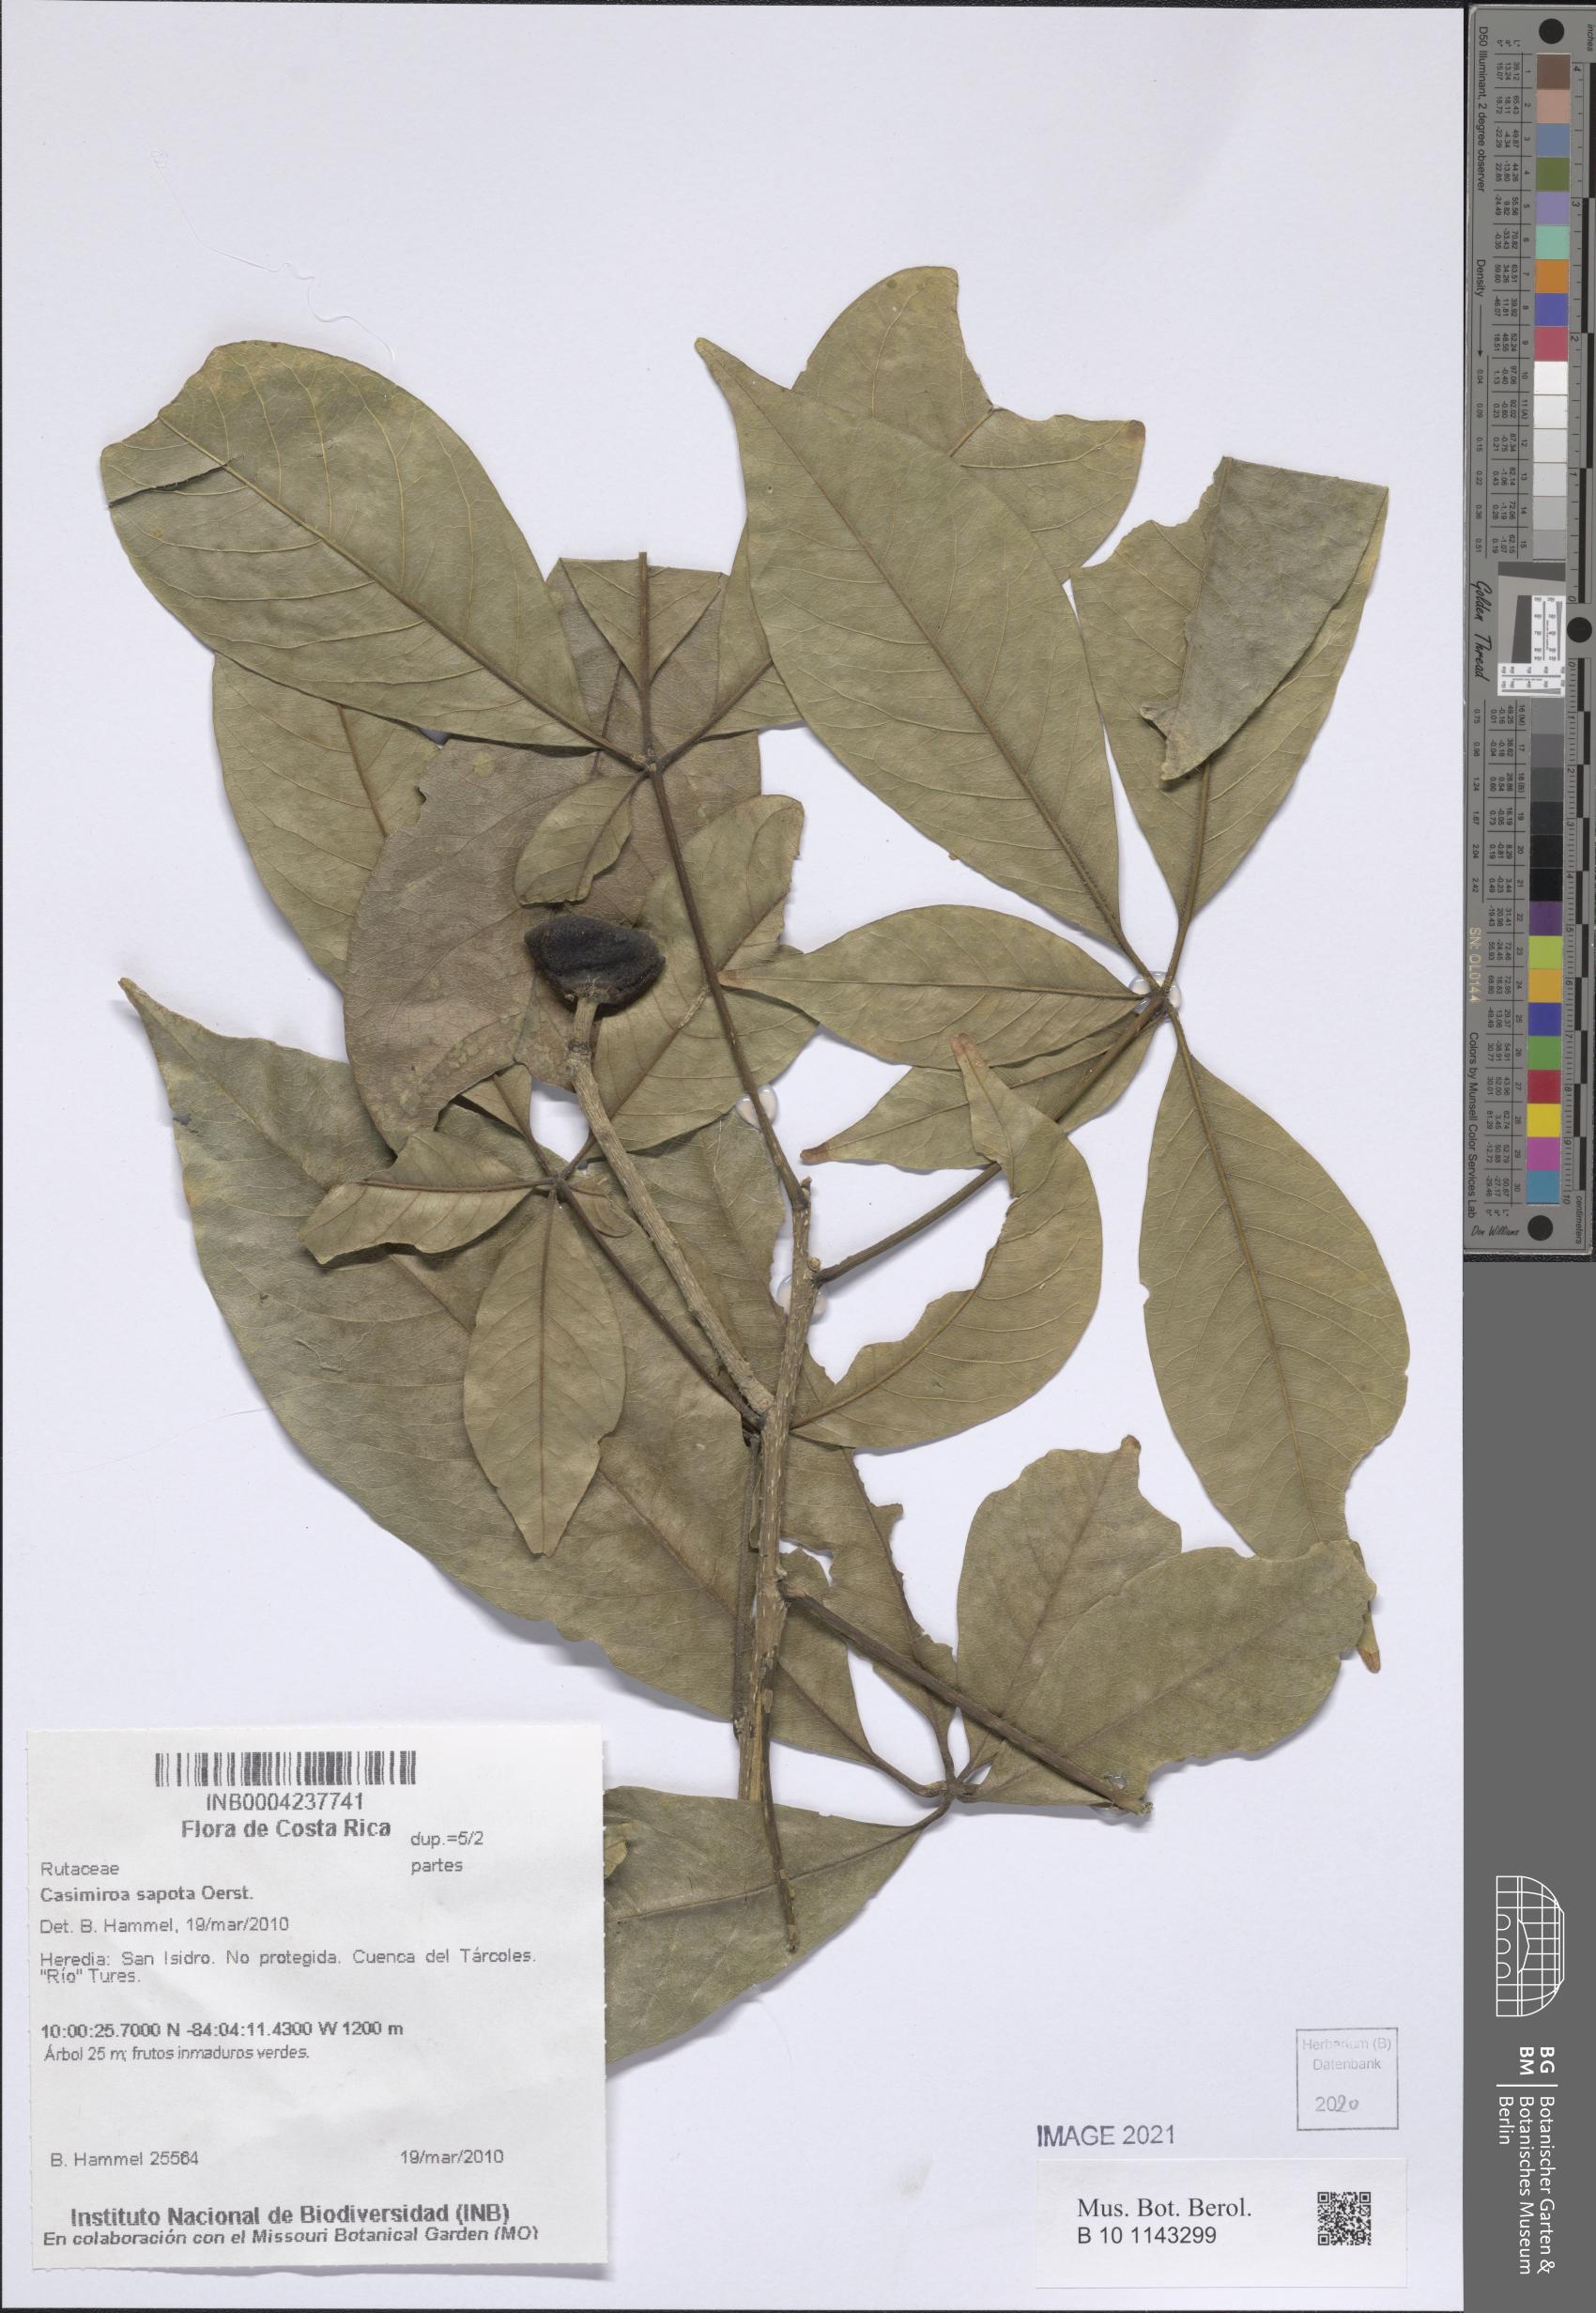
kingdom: Plantae
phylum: Tracheophyta
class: Magnoliopsida
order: Sapindales
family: Rutaceae
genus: Casimiroa
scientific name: Casimiroa sapota
